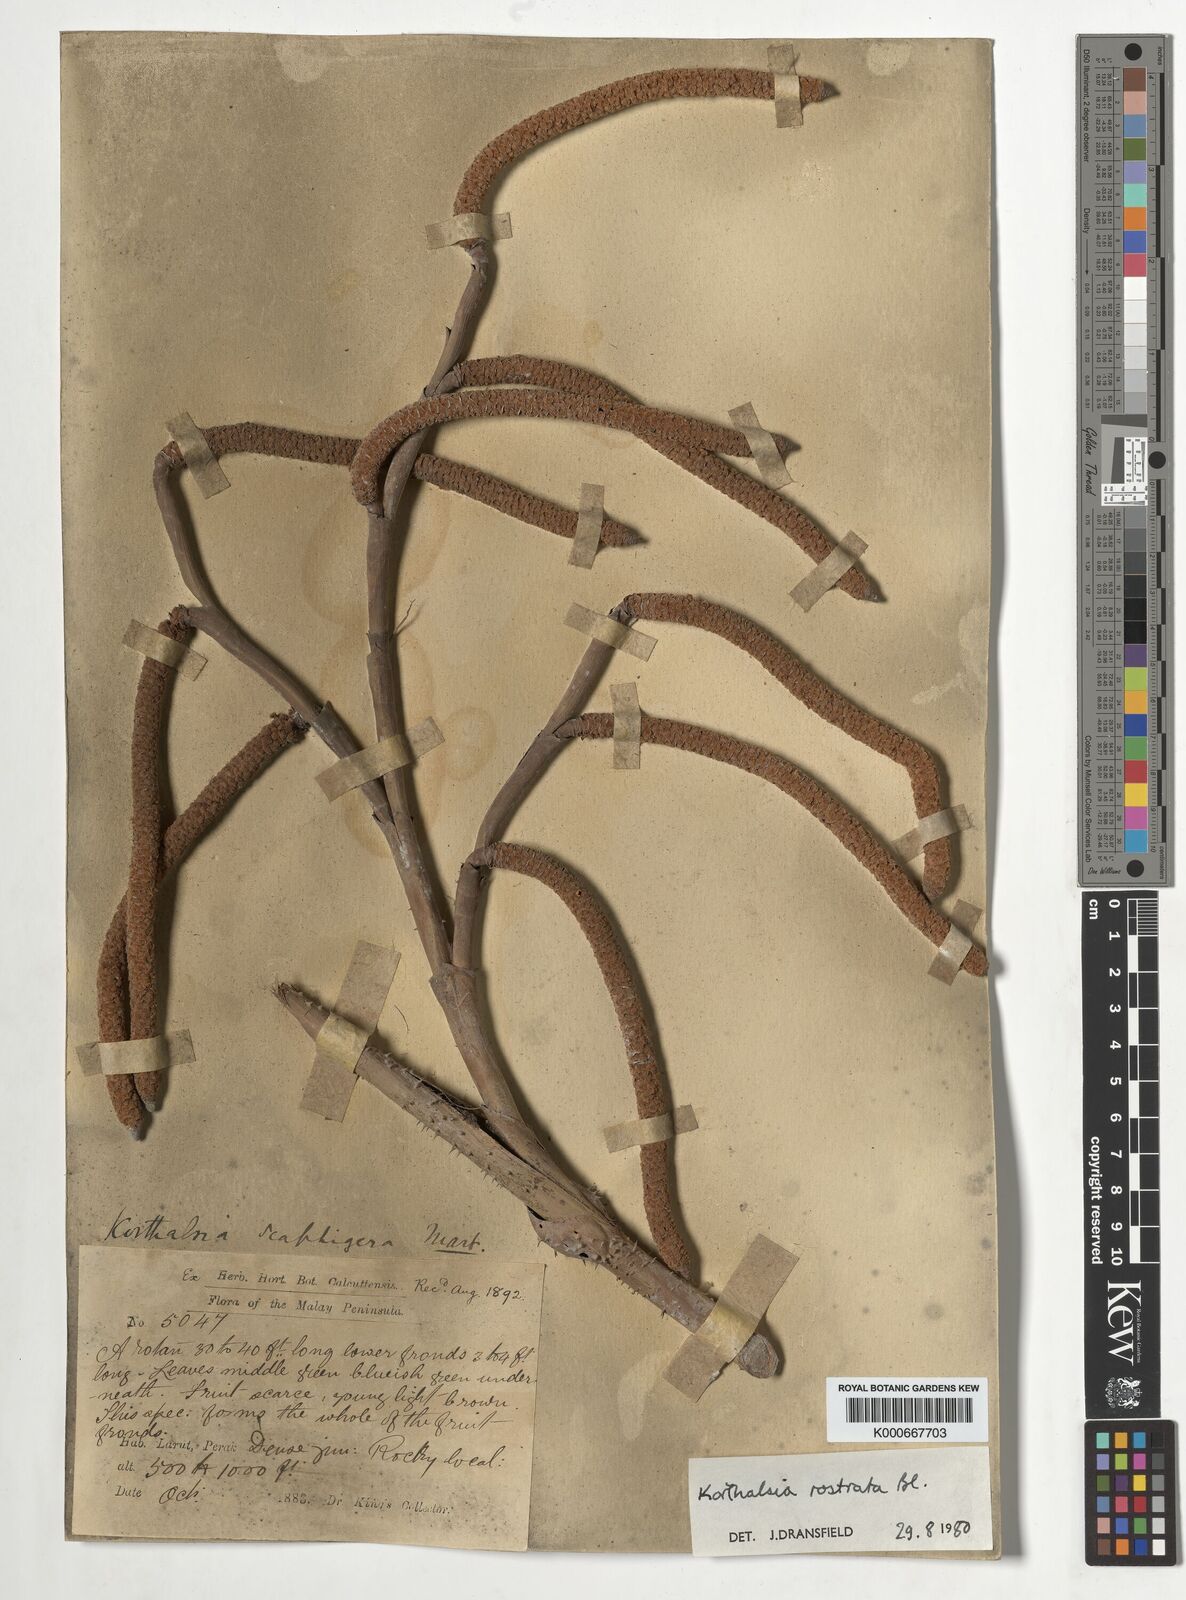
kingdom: Plantae
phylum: Tracheophyta
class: Liliopsida
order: Arecales
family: Arecaceae
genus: Korthalsia
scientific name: Korthalsia rostrata
